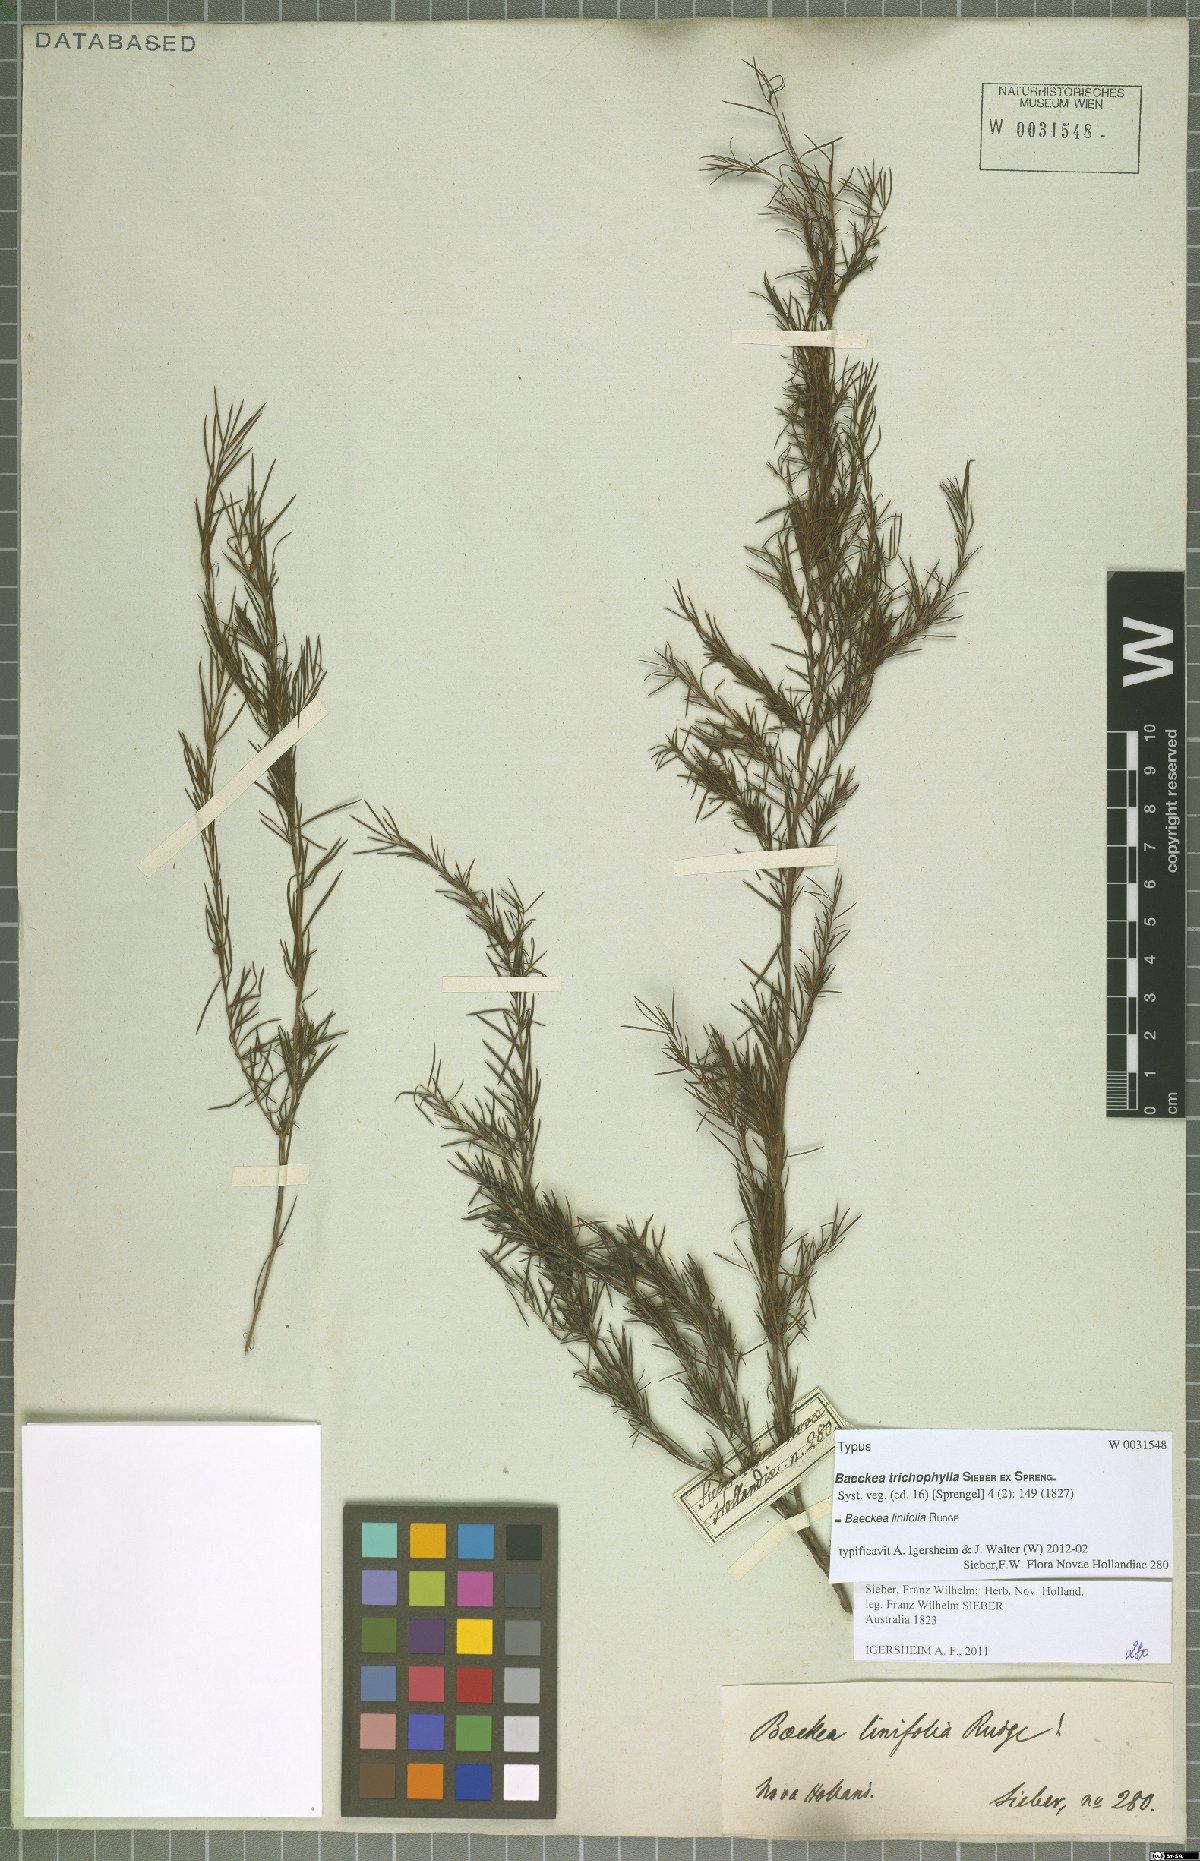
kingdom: Plantae
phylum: Tracheophyta
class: Magnoliopsida
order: Myrtales
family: Myrtaceae
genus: Baeckea
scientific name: Baeckea linifolia
